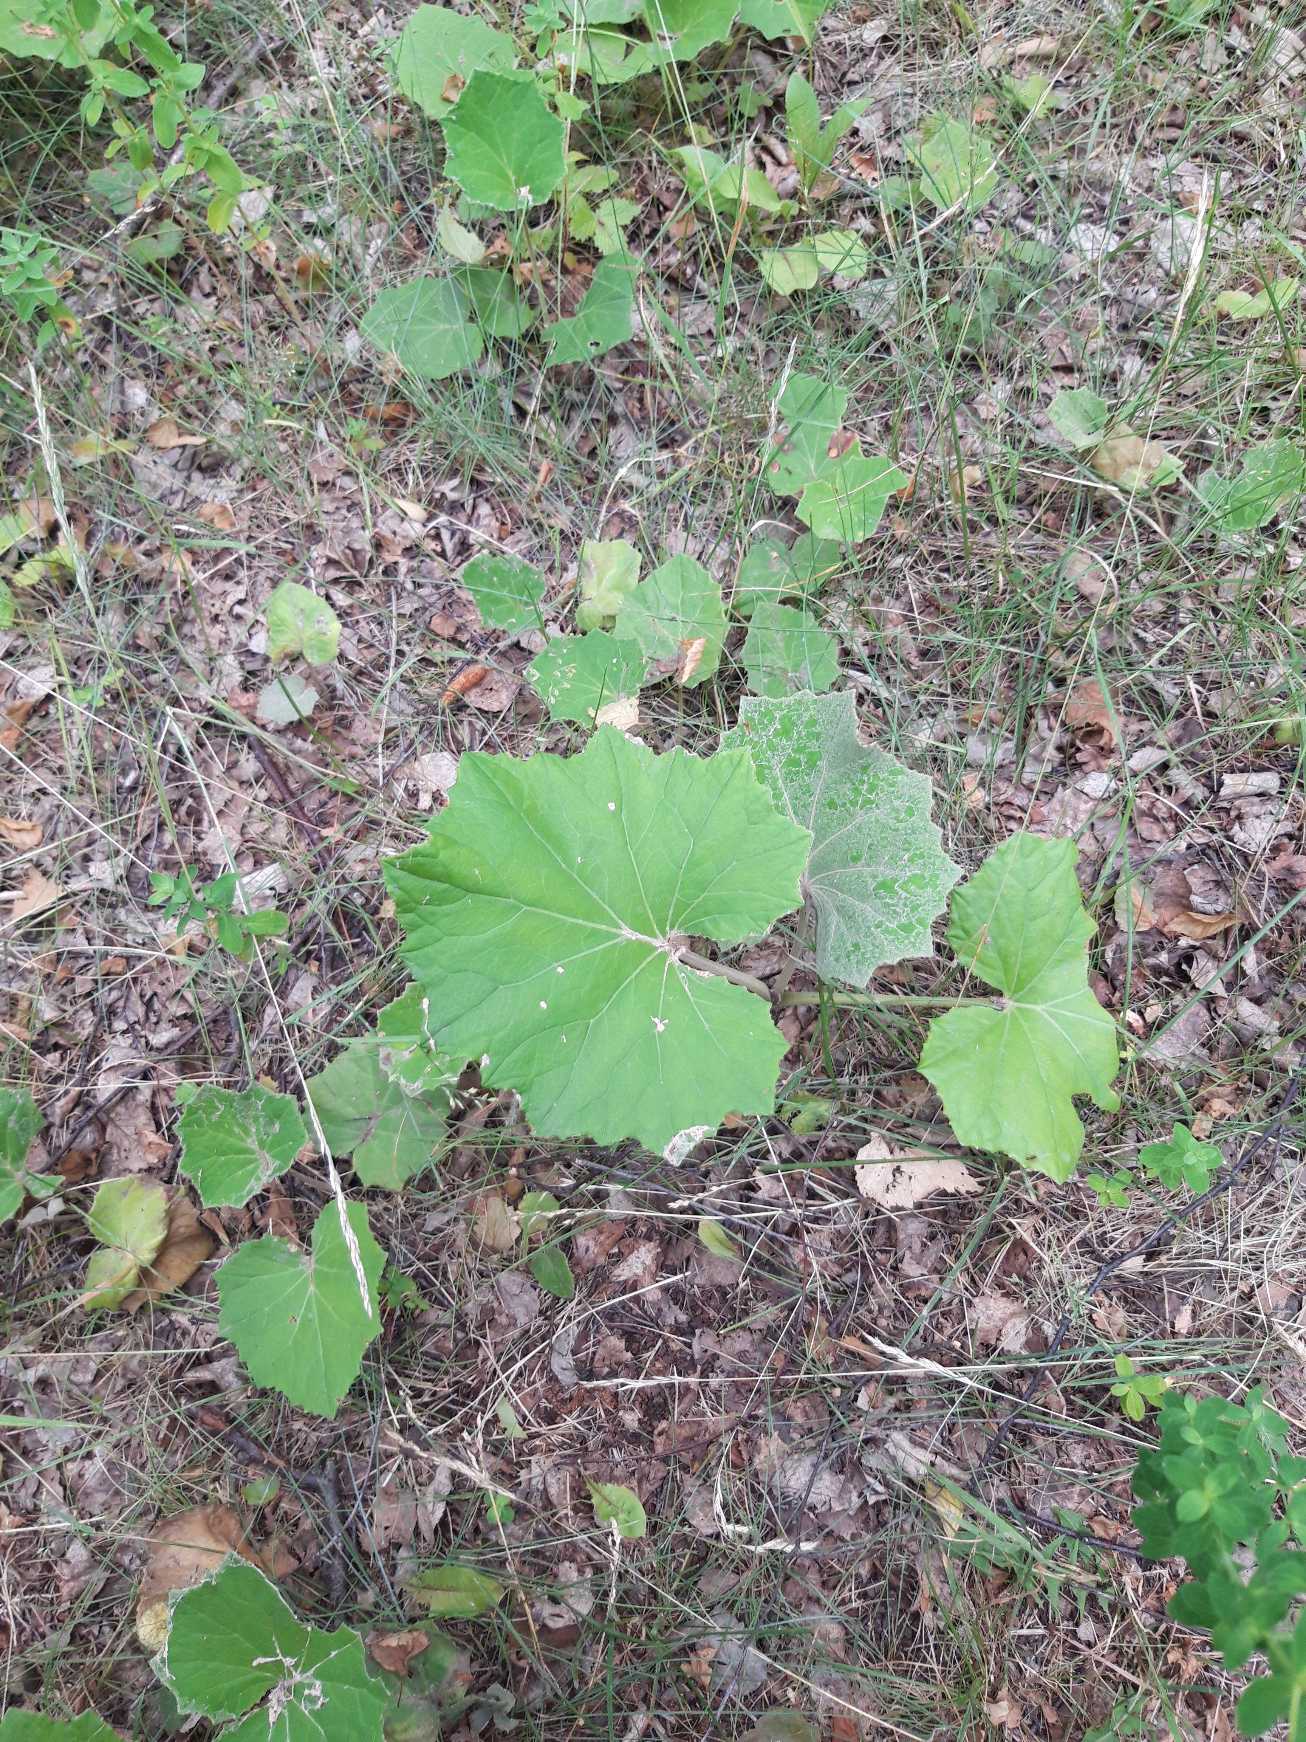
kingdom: Plantae
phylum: Tracheophyta
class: Magnoliopsida
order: Asterales
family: Asteraceae
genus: Tussilago
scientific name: Tussilago farfara
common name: Følfod
